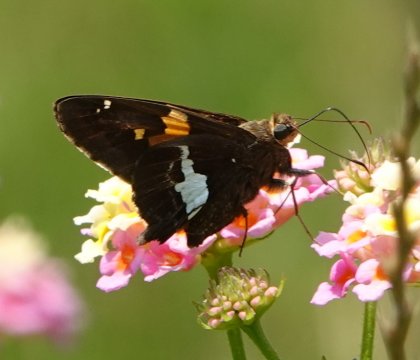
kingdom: Animalia
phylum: Arthropoda
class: Insecta
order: Lepidoptera
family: Hesperiidae
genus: Epargyreus
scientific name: Epargyreus clarus
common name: Silver-spotted Skipper
